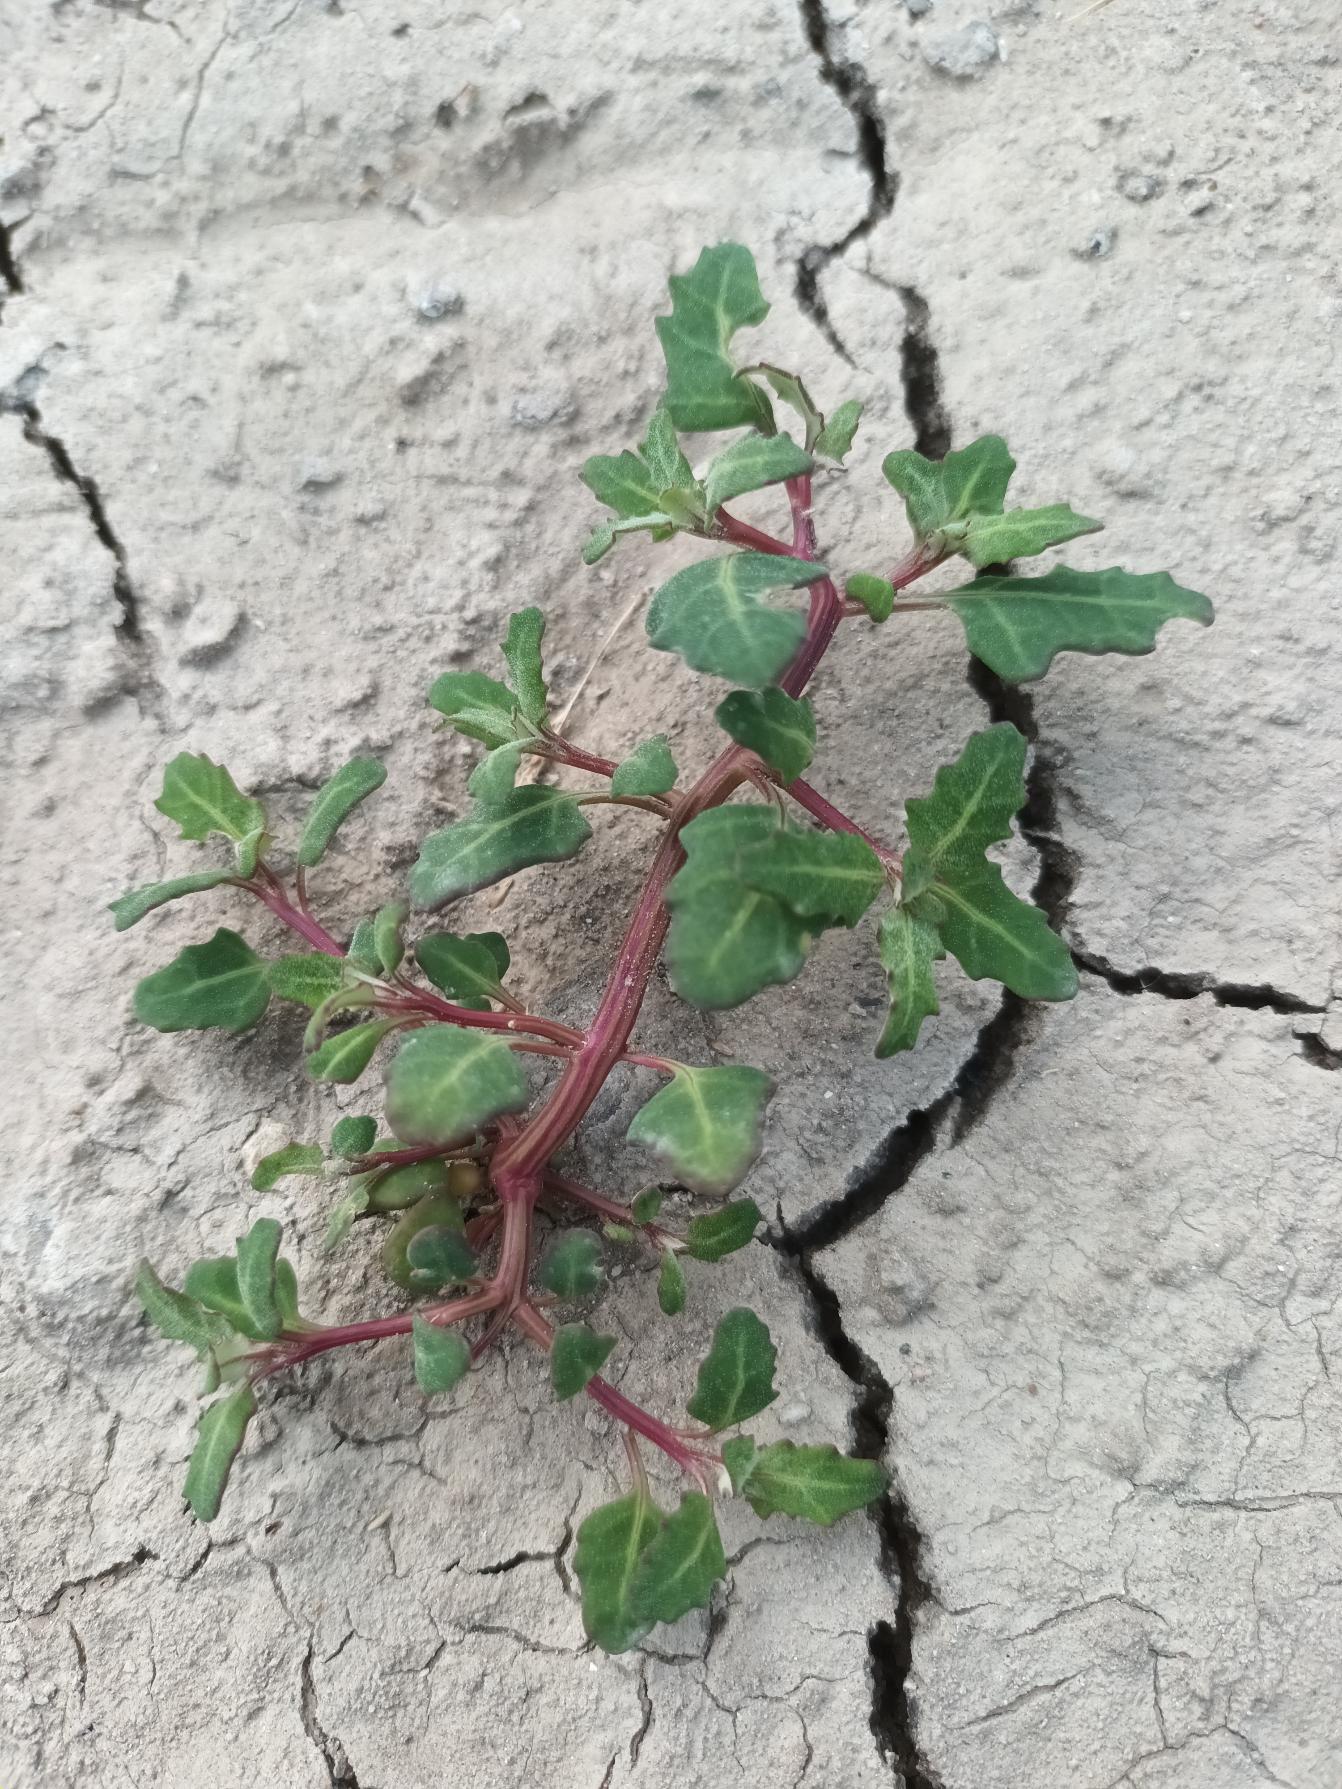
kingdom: Plantae
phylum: Tracheophyta
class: Magnoliopsida
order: Caryophyllales
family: Amaranthaceae
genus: Oxybasis
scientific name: Oxybasis glauca
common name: Blågrøn gåsefod
